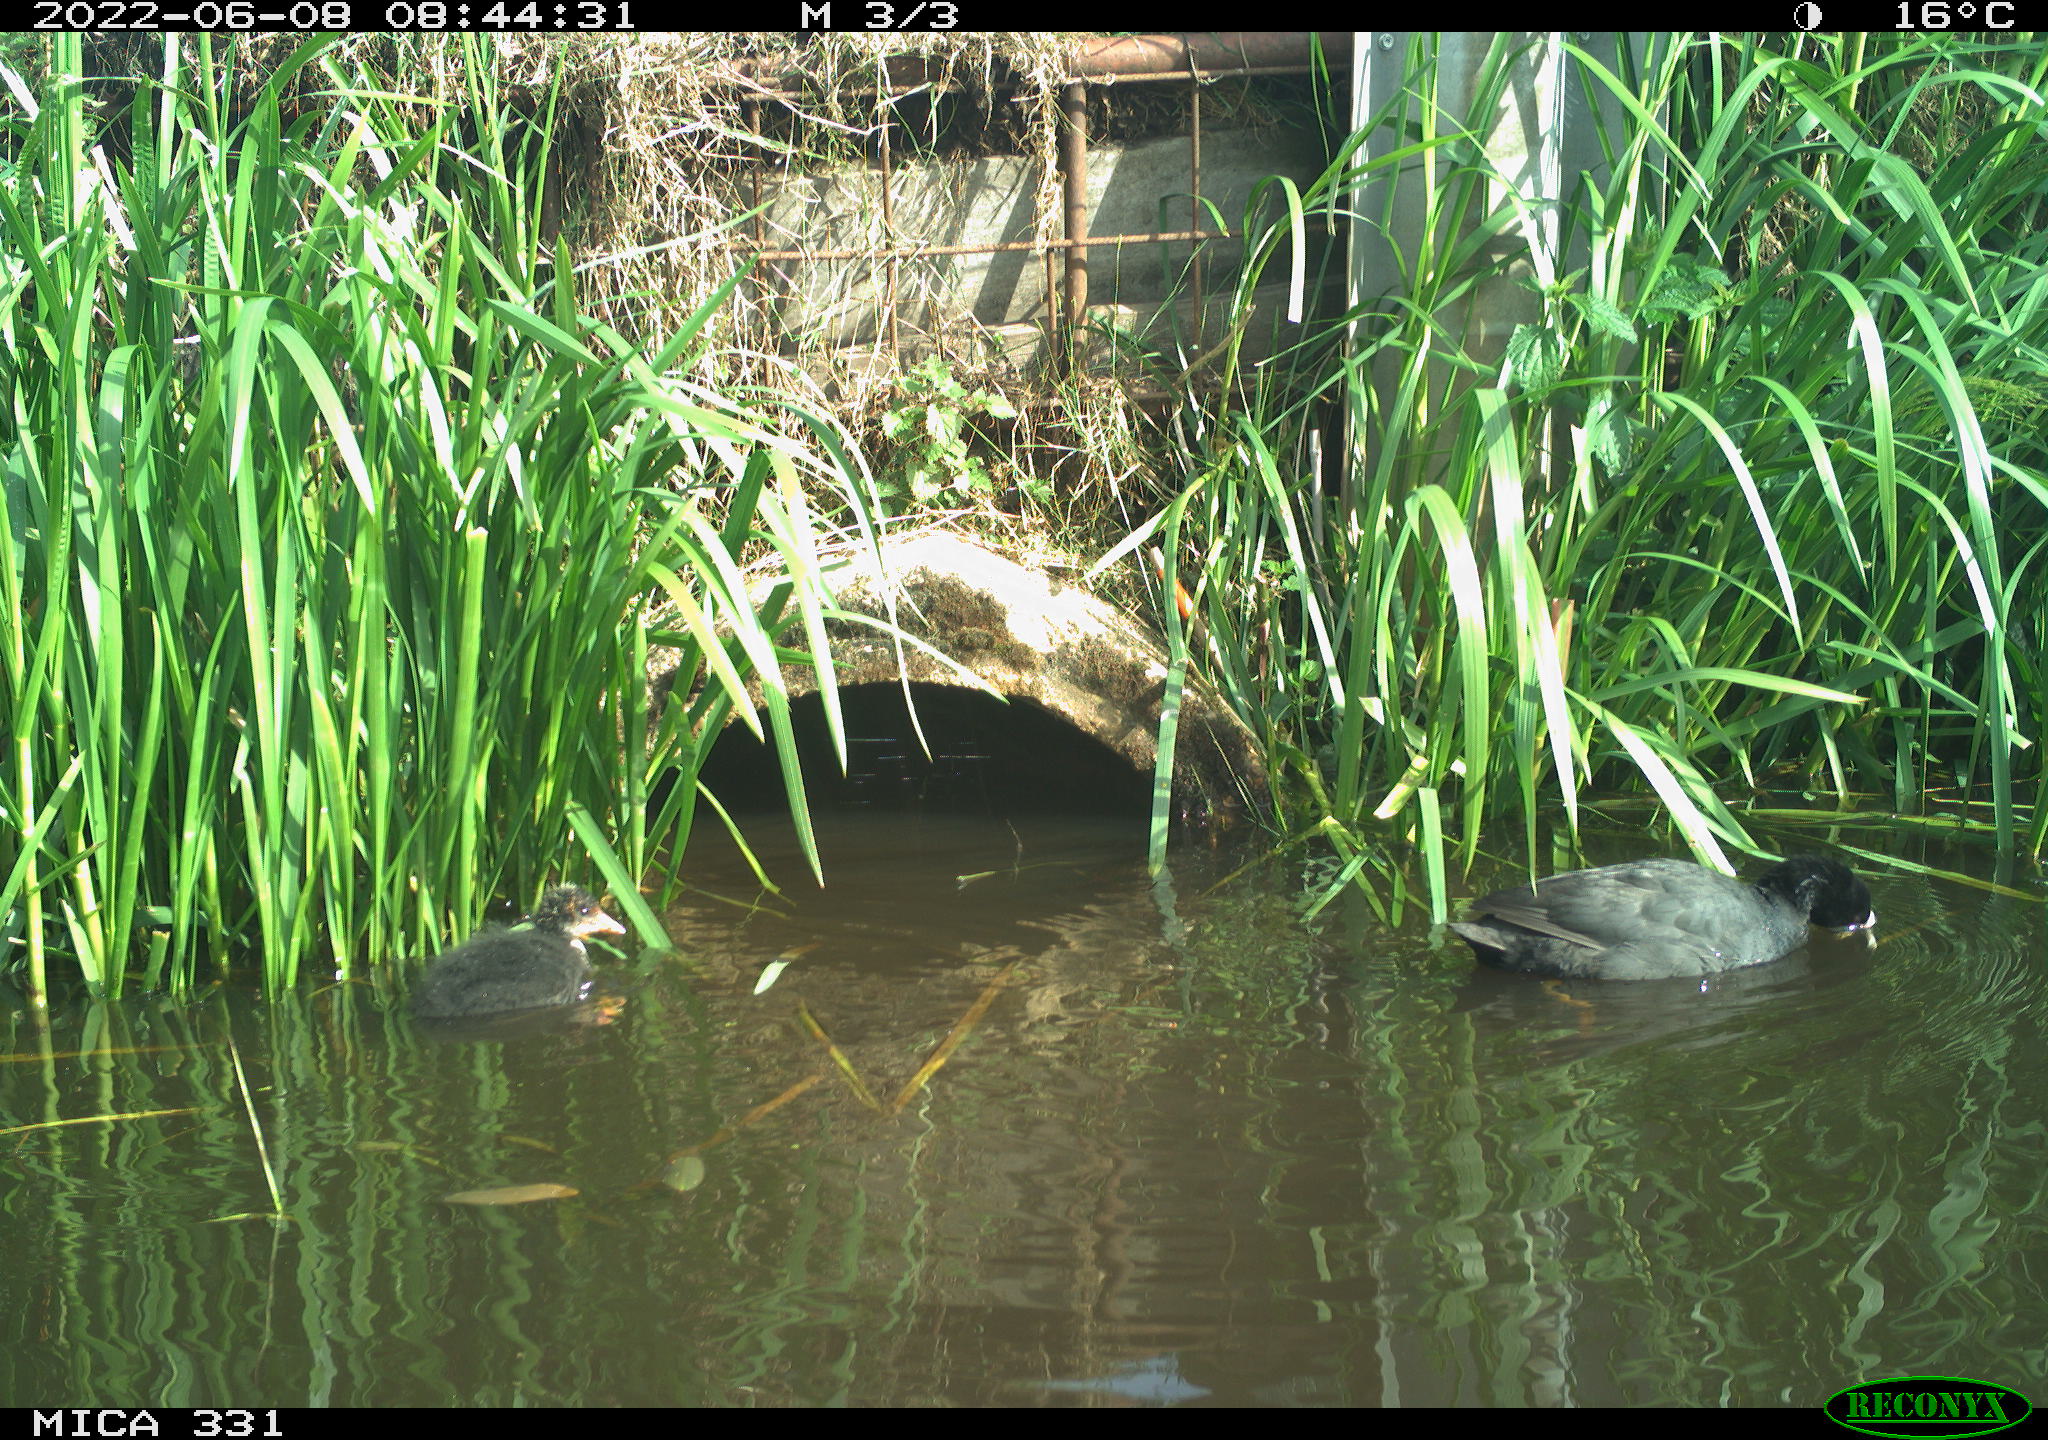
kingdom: Animalia
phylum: Chordata
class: Aves
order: Gruiformes
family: Rallidae
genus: Fulica
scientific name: Fulica atra
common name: Eurasian coot
